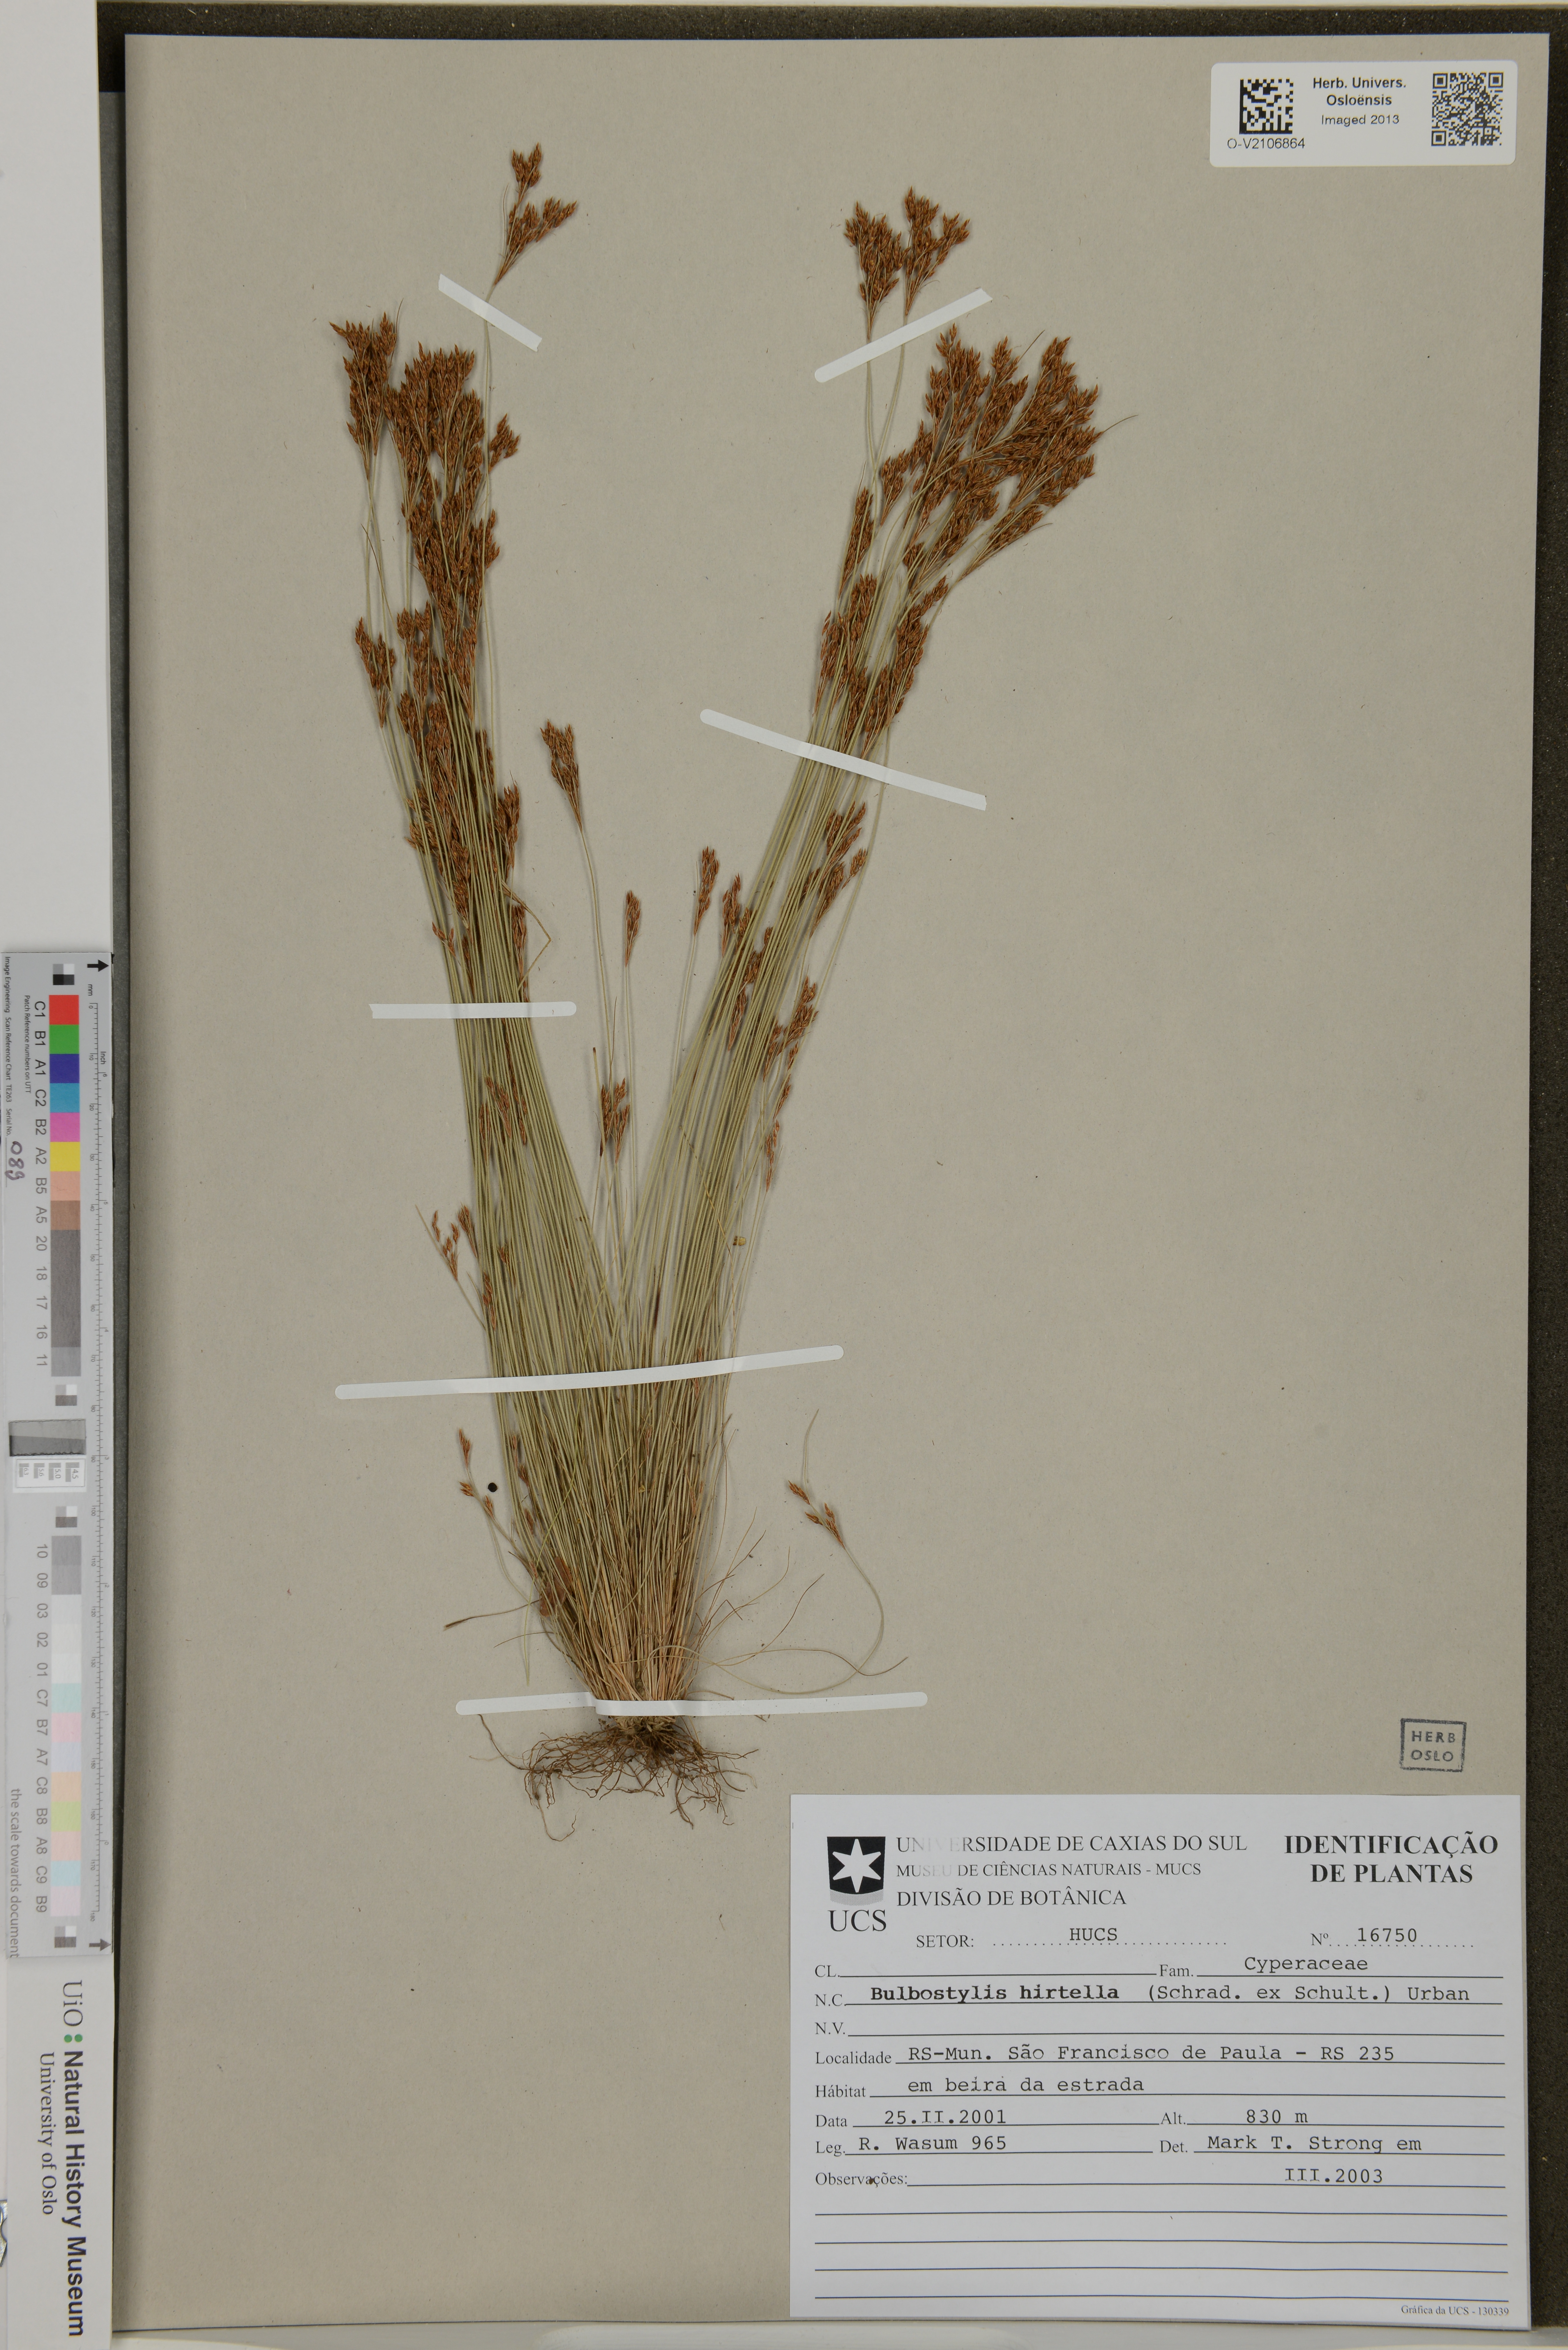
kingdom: Plantae
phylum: Tracheophyta
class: Liliopsida
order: Poales
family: Cyperaceae
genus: Bulbostylis
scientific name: Bulbostylis juncoides
